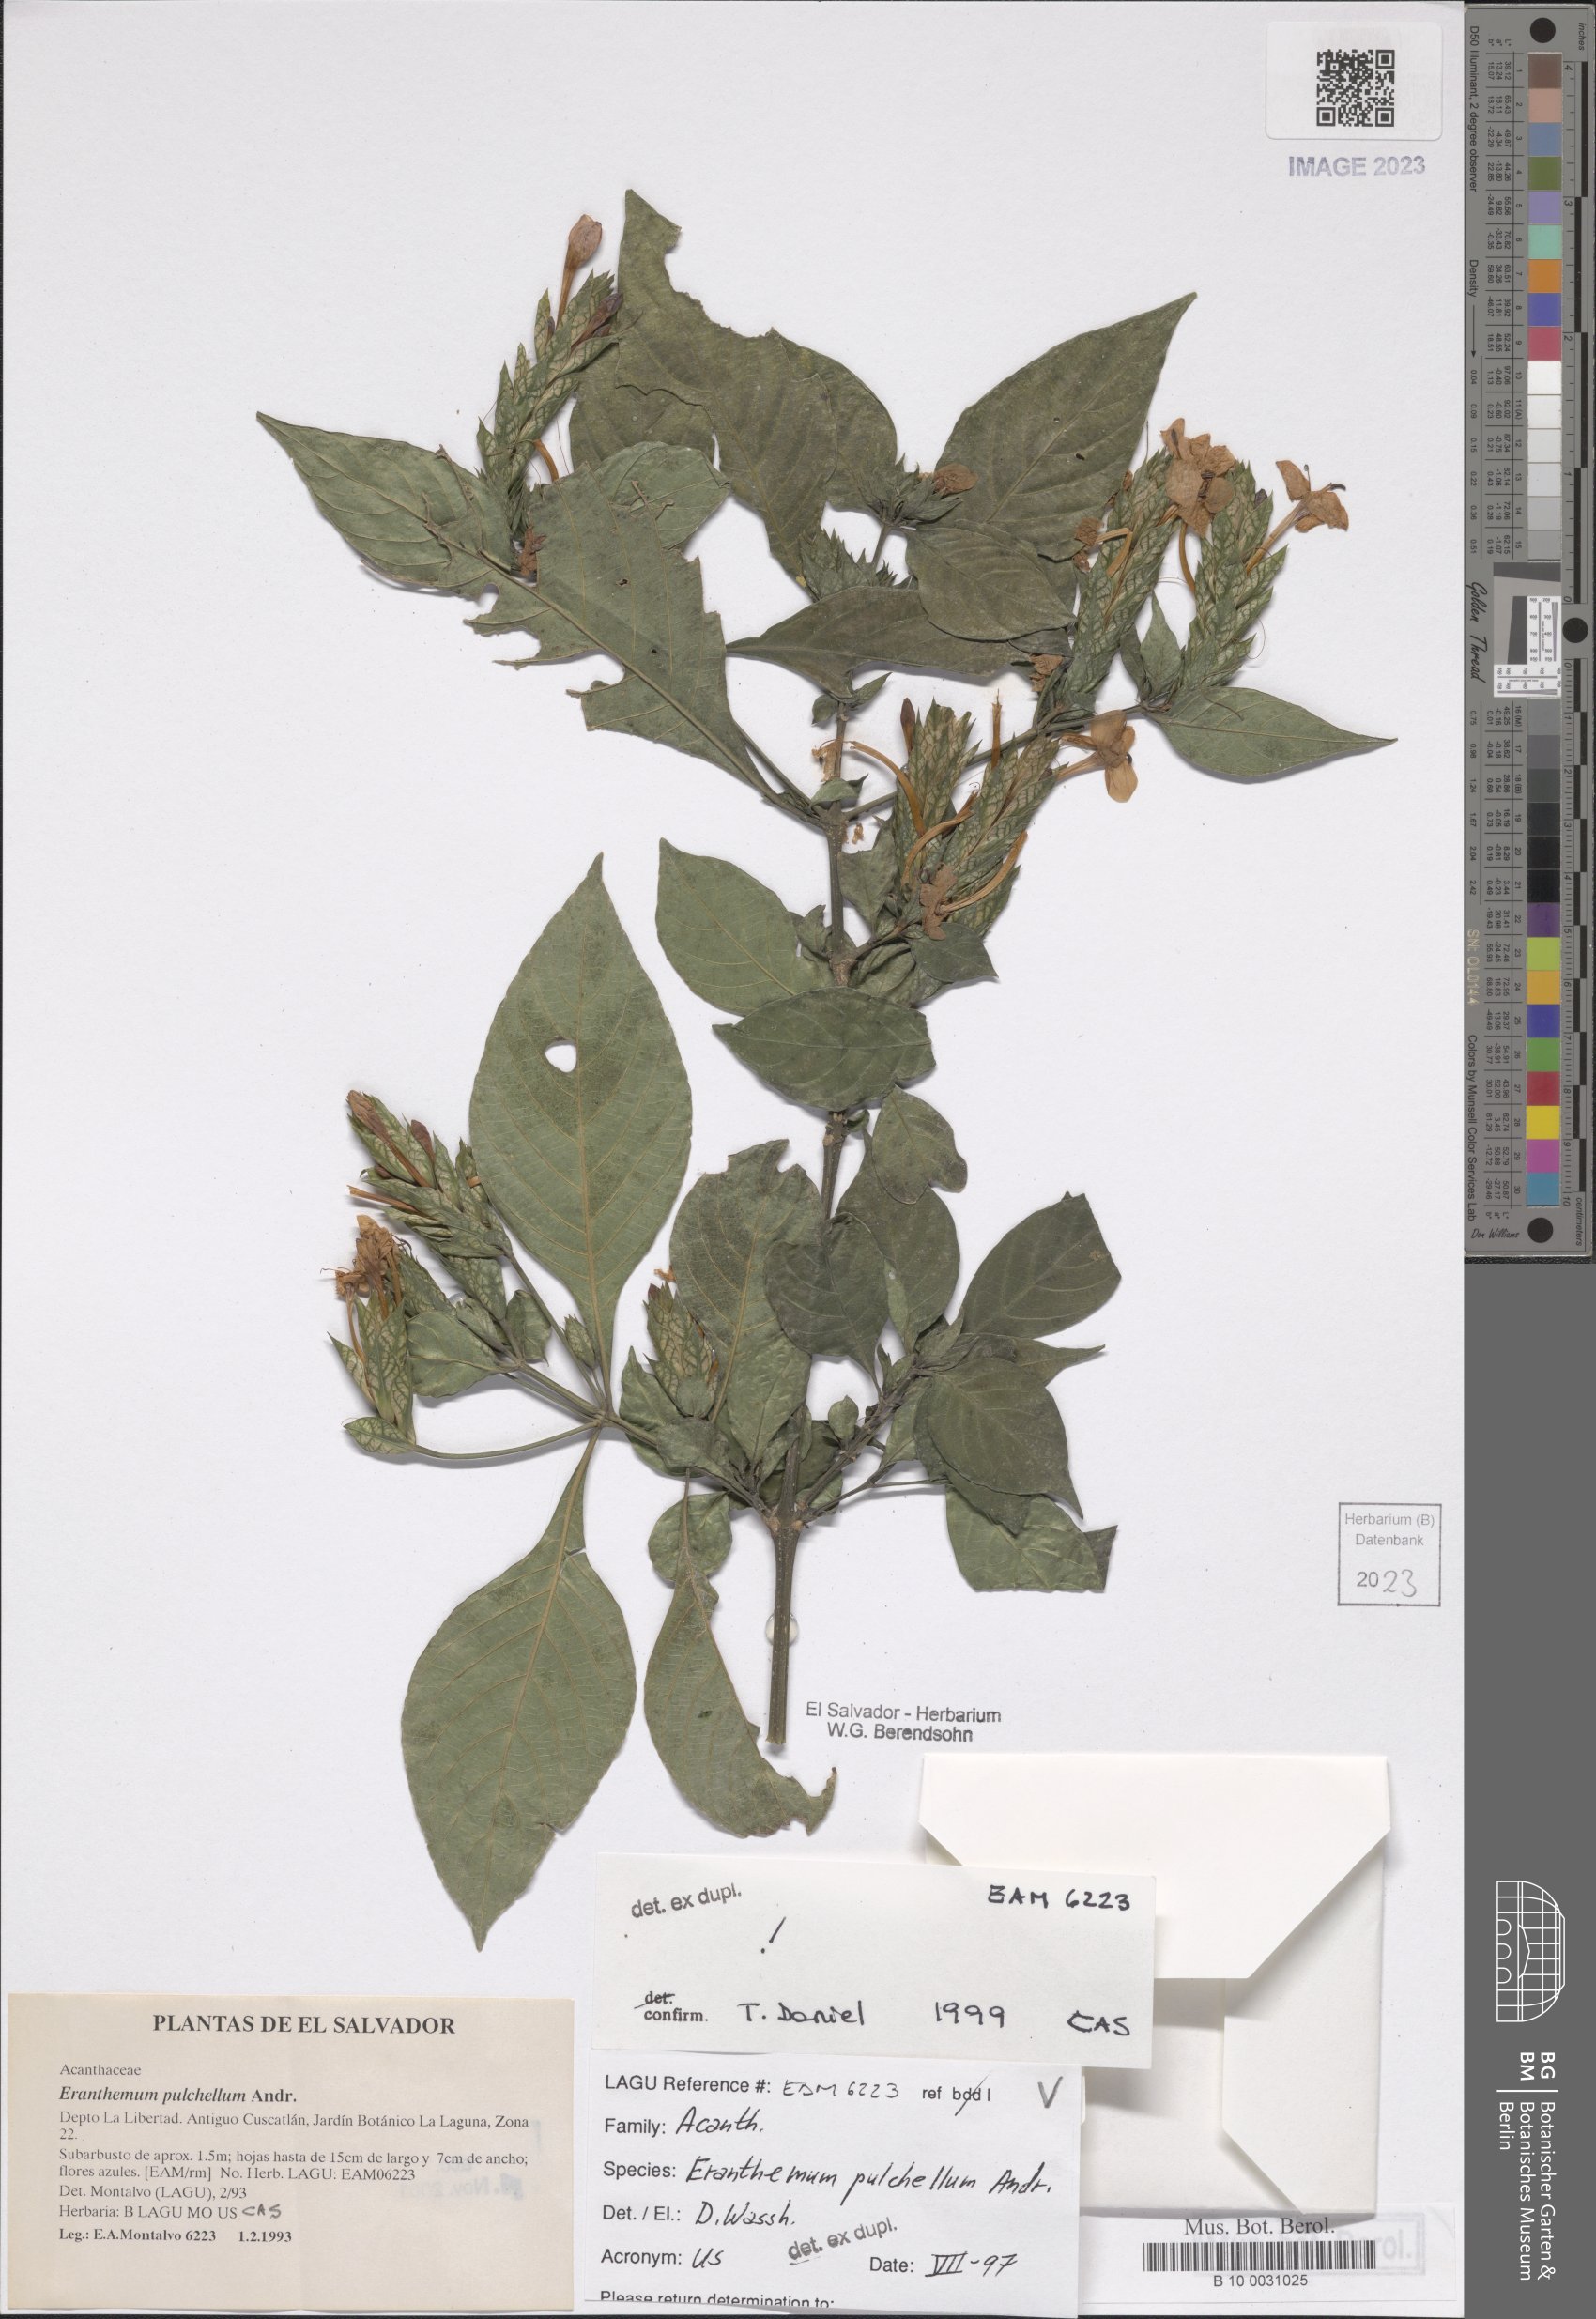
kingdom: Plantae
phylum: Tracheophyta
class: Magnoliopsida
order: Lamiales
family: Acanthaceae
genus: Eranthemum
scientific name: Eranthemum pulchellum
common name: Blue-sage
